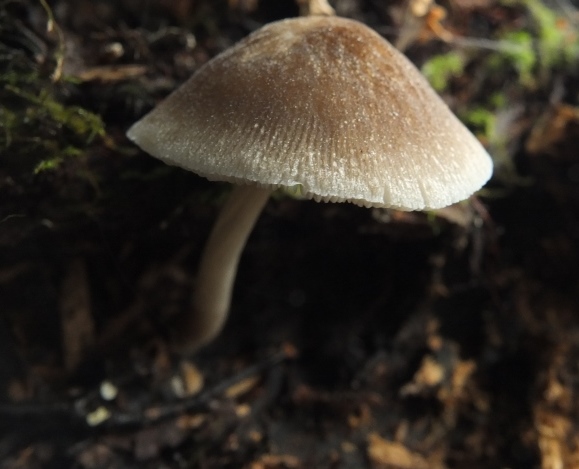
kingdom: Fungi
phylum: Basidiomycota
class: Agaricomycetes
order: Agaricales
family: Pluteaceae
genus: Pluteus
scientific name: Pluteus
